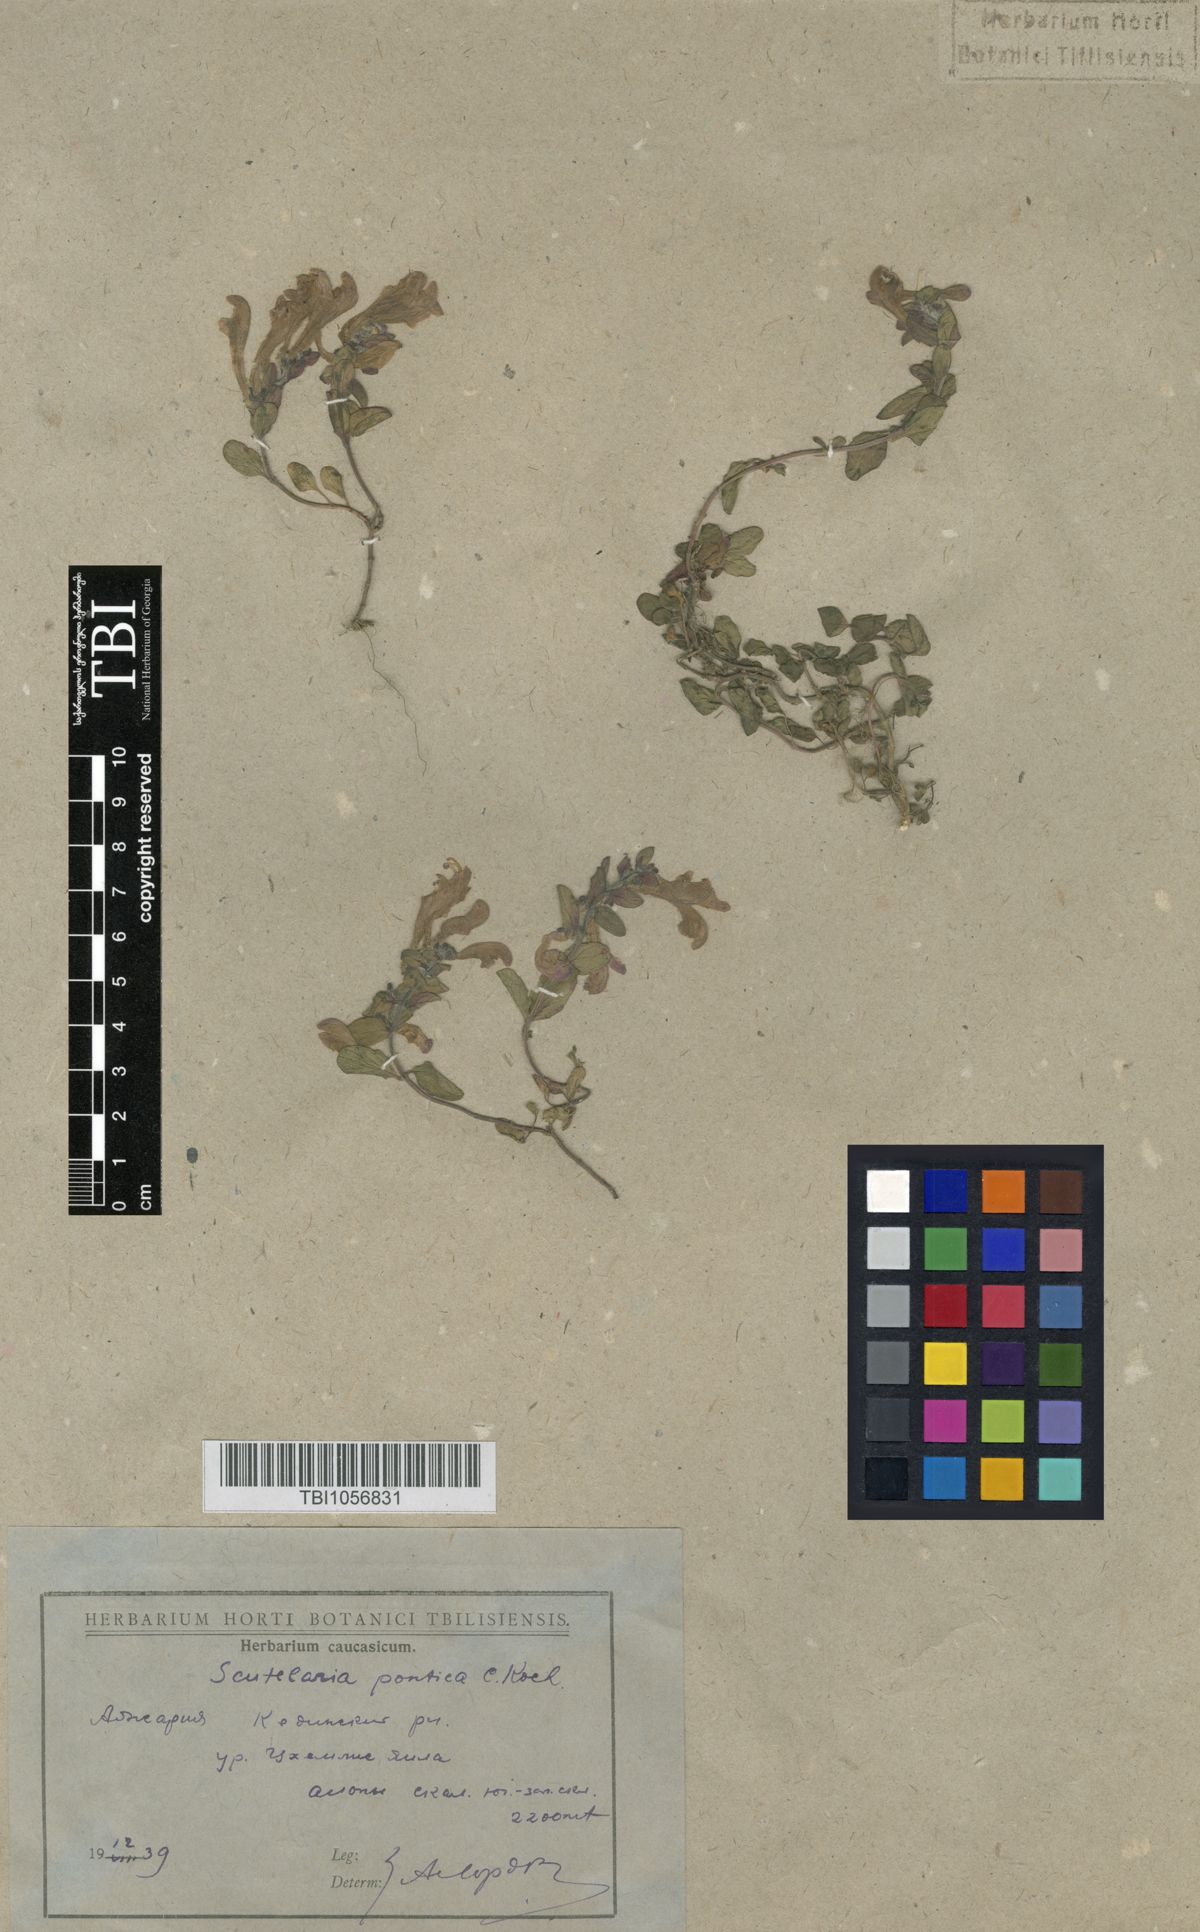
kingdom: Plantae
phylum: Tracheophyta
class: Magnoliopsida
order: Lamiales
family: Lamiaceae
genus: Scutellaria
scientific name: Scutellaria pontica
